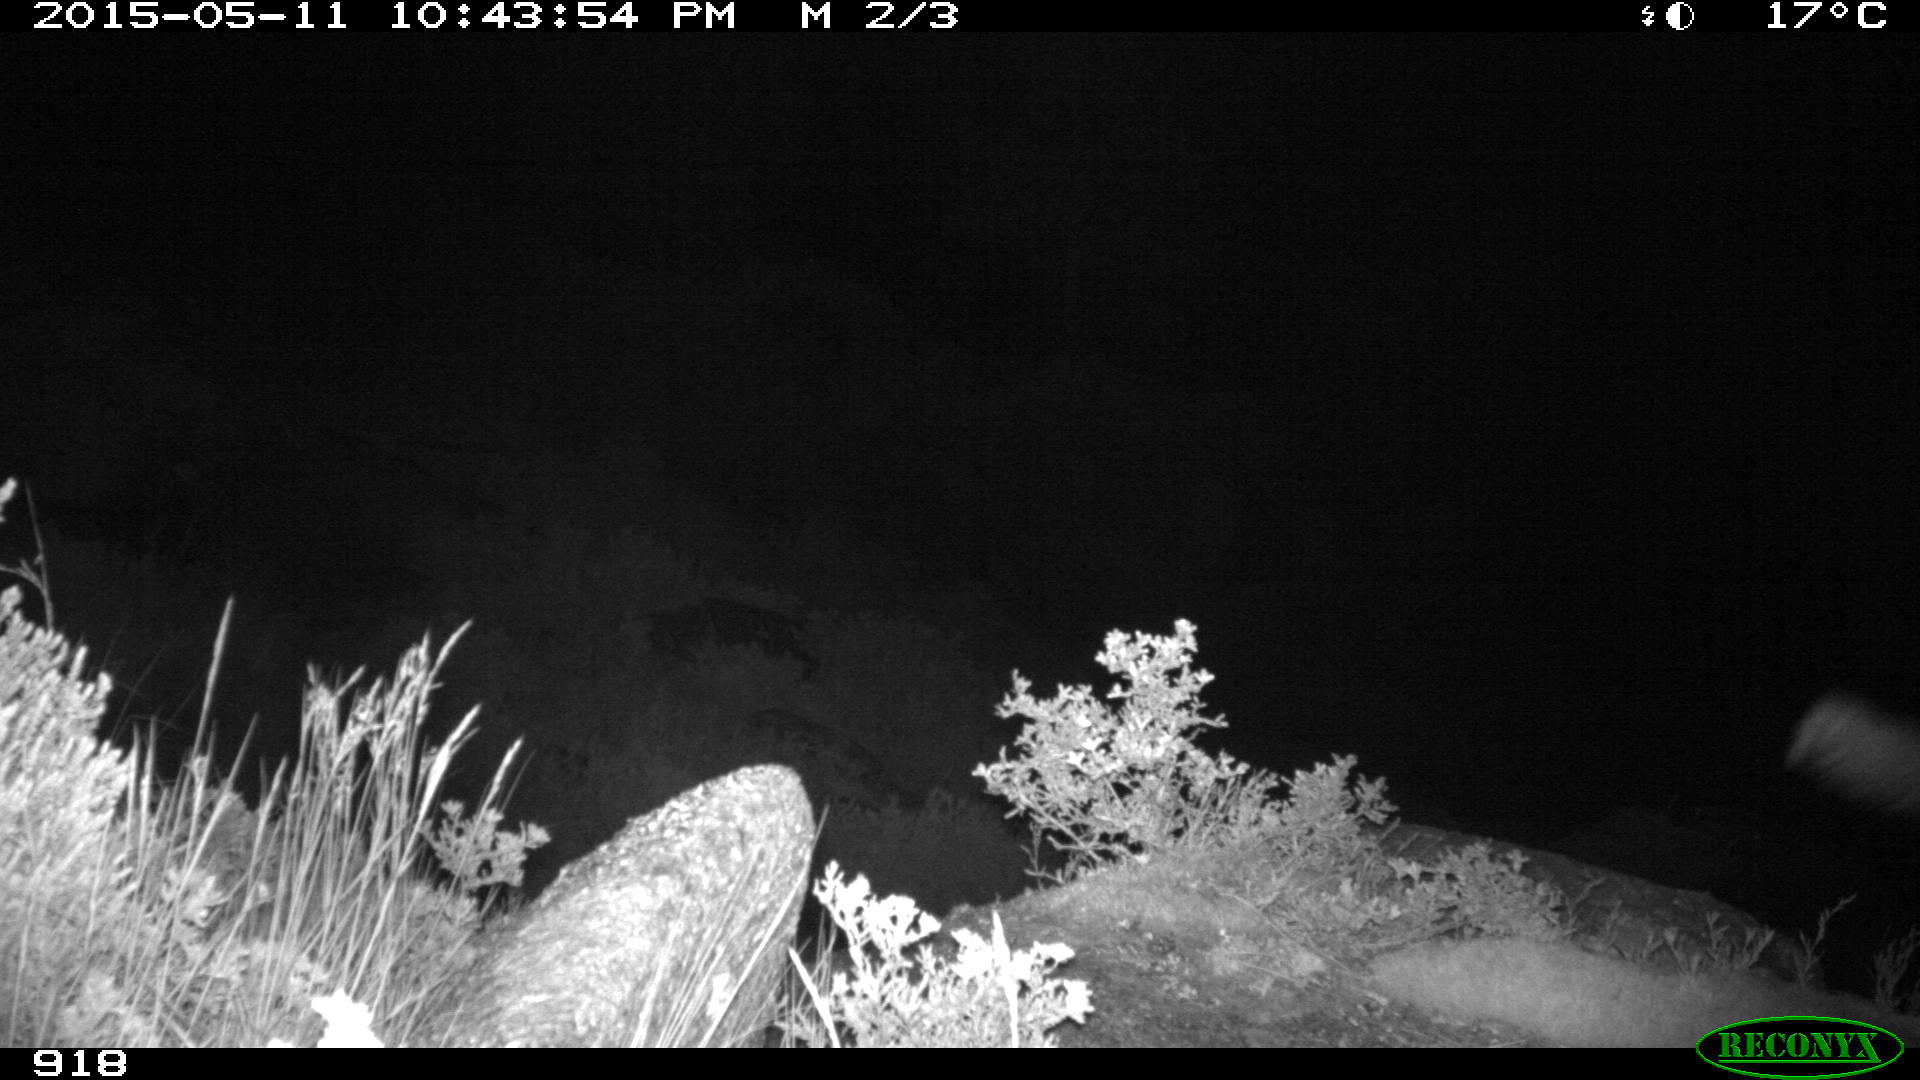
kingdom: Animalia
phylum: Chordata
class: Mammalia
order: Carnivora
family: Canidae
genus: Vulpes
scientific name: Vulpes vulpes
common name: Red fox
